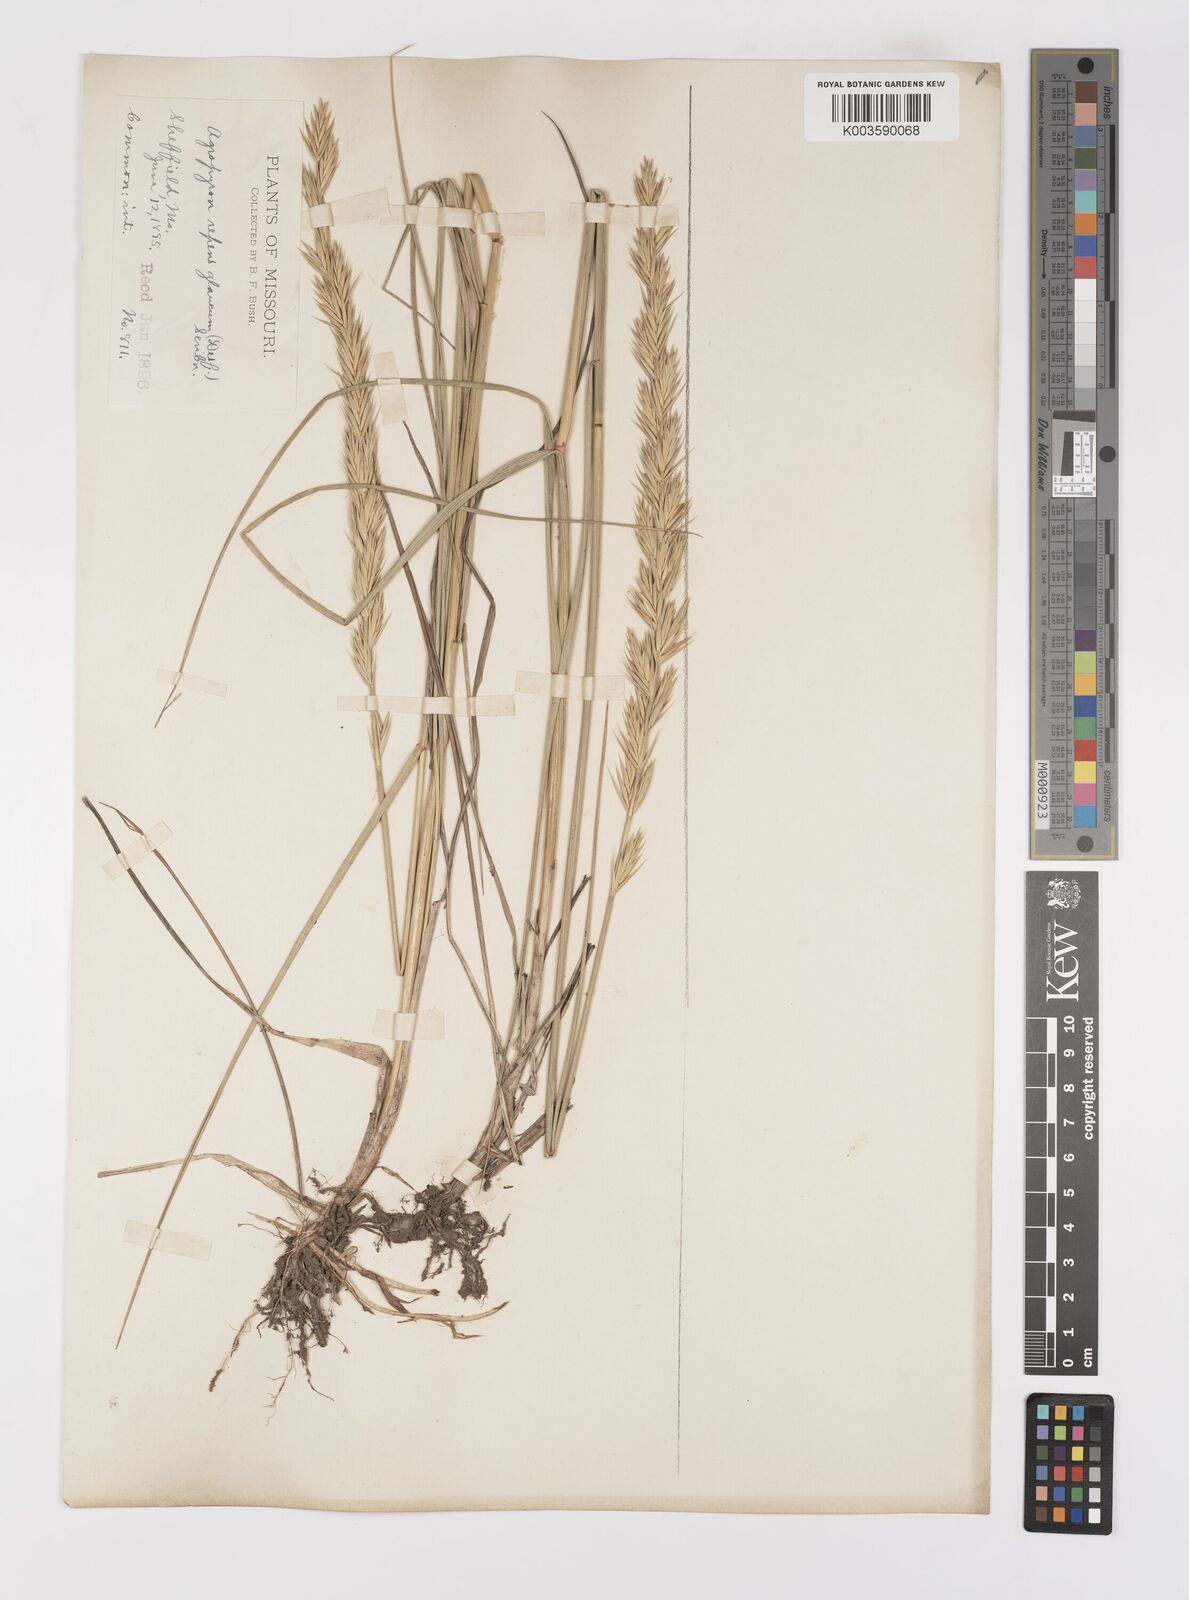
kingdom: Plantae
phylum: Tracheophyta
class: Liliopsida
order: Poales
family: Poaceae
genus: Elymus
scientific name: Elymus repens
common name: Quackgrass
